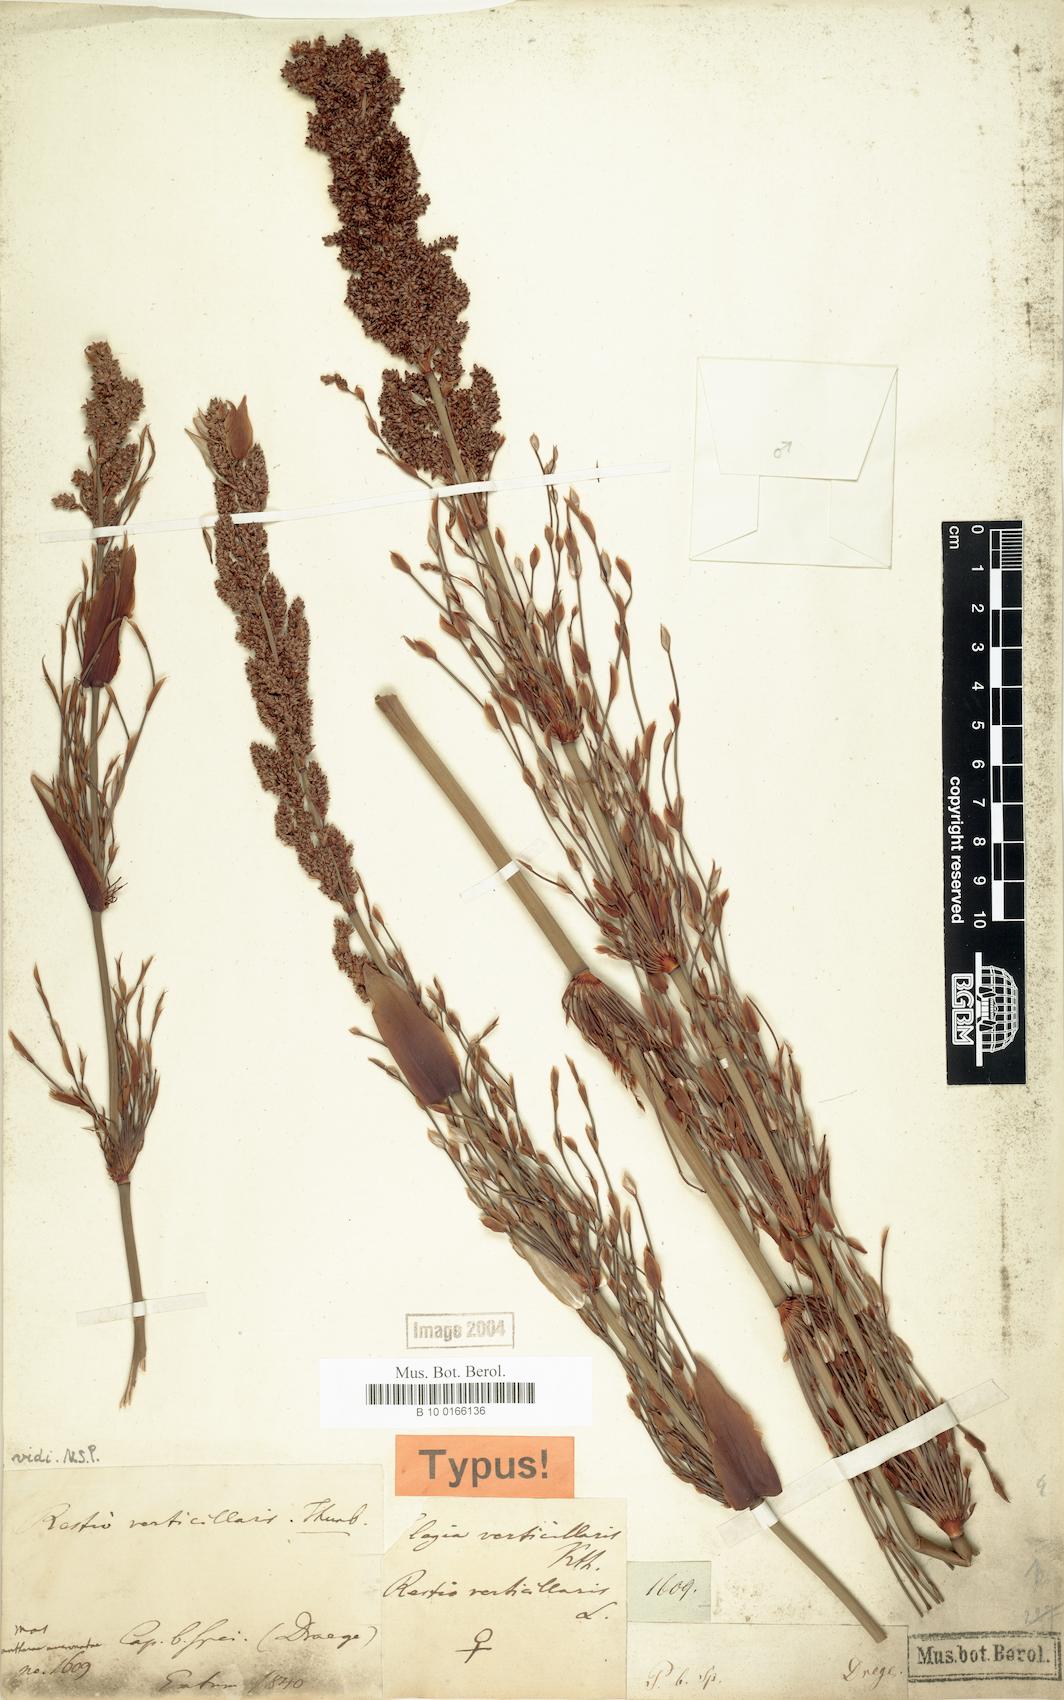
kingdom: Plantae
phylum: Tracheophyta
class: Liliopsida
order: Poales
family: Restionaceae
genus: Elegia
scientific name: Elegia capensis
